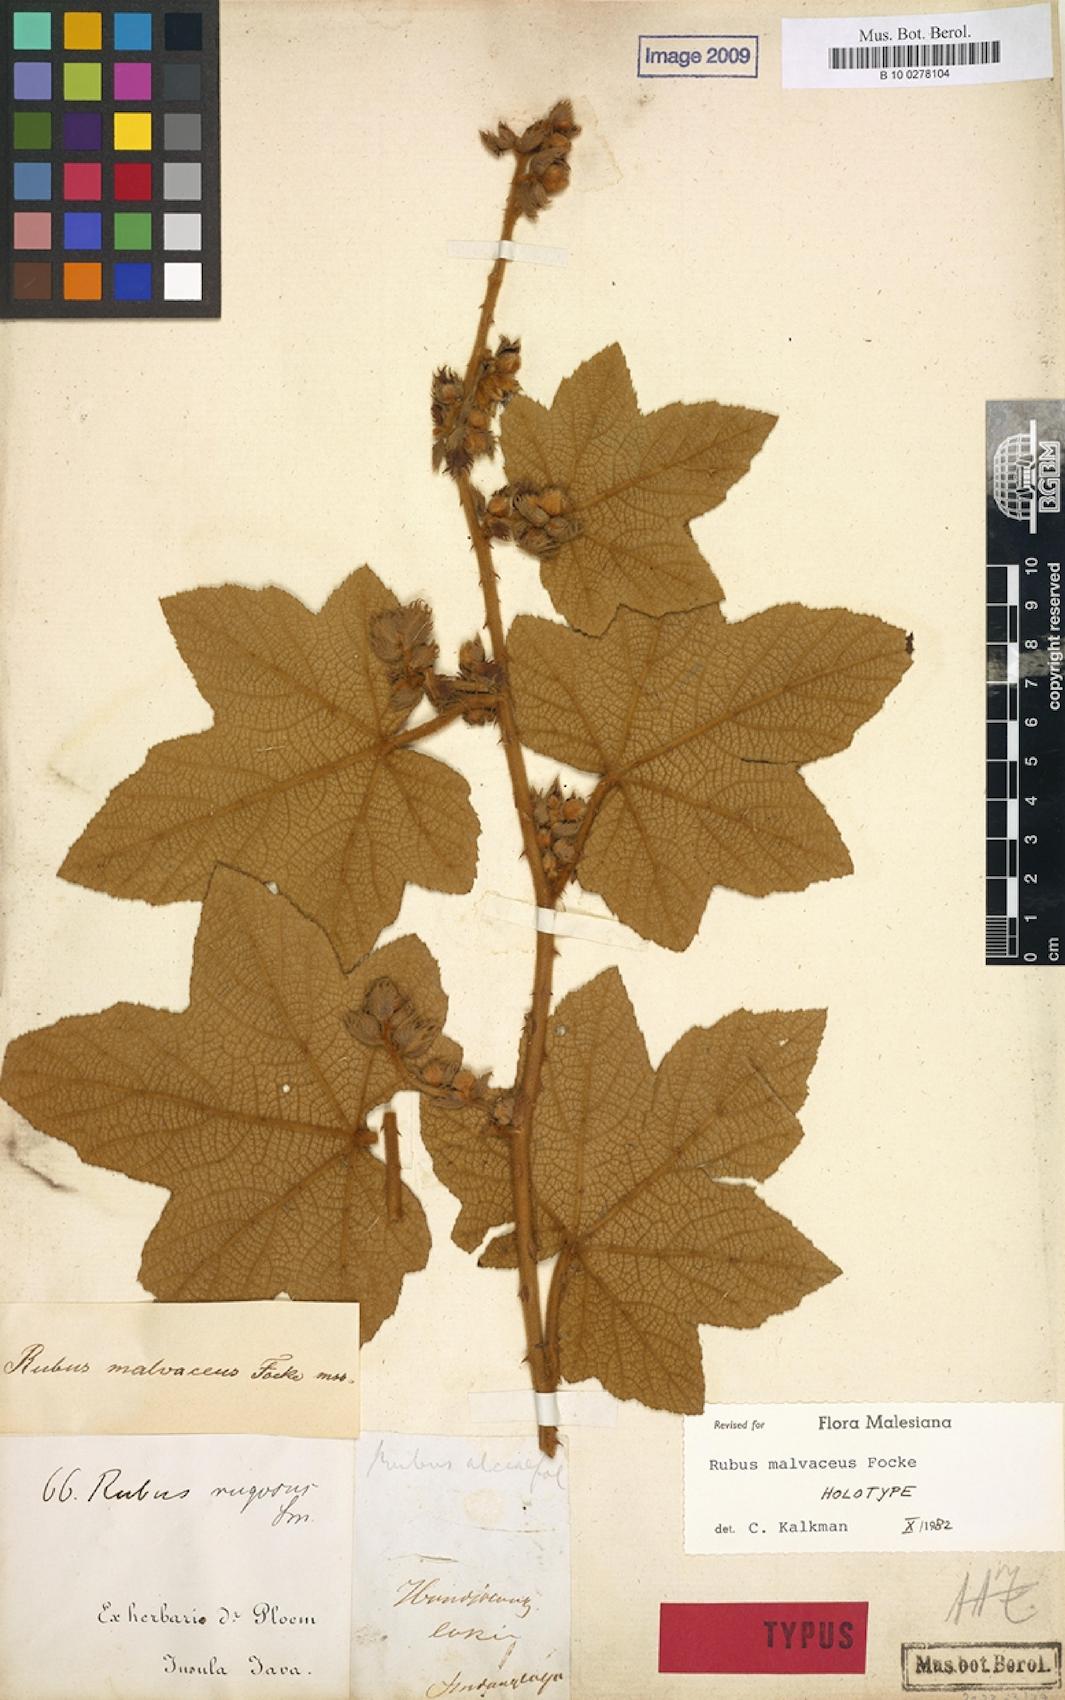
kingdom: Plantae
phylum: Tracheophyta
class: Magnoliopsida
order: Rosales
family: Rosaceae
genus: Rubus
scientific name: Rubus malvaceus
